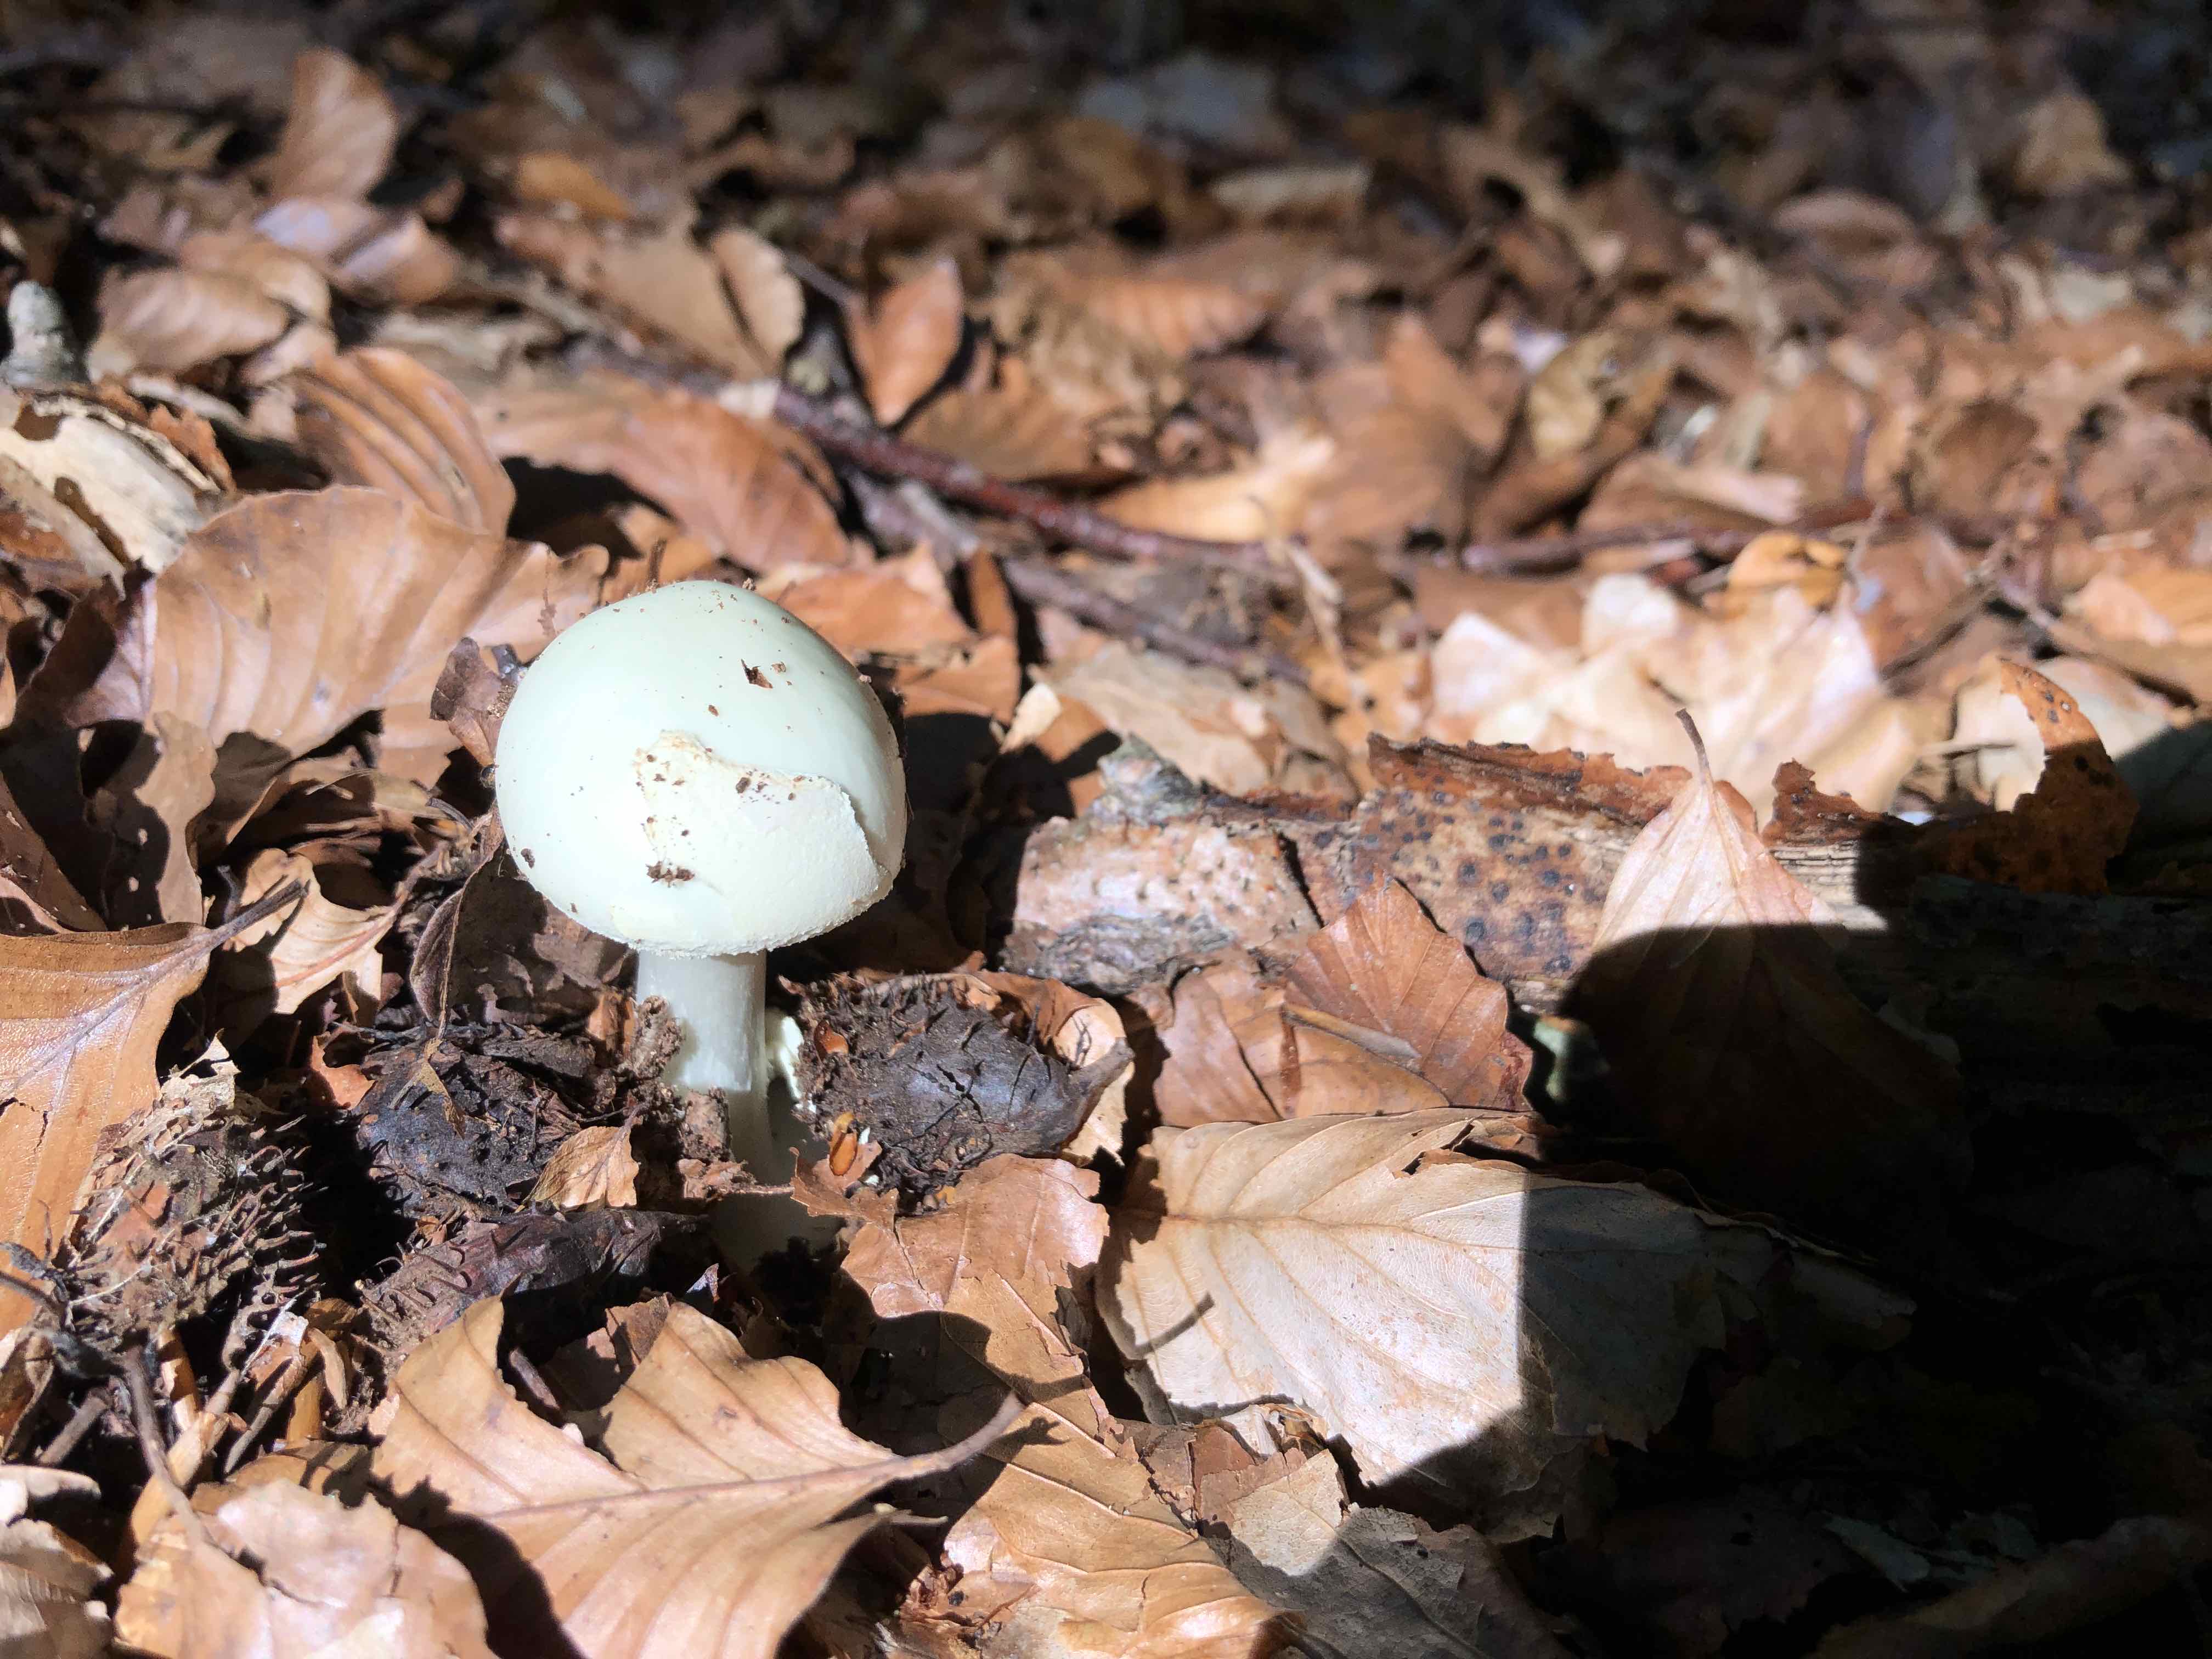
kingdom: Fungi
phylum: Basidiomycota
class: Agaricomycetes
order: Agaricales
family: Amanitaceae
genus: Amanita
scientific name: Amanita citrina
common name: kugleknoldet fluesvamp
